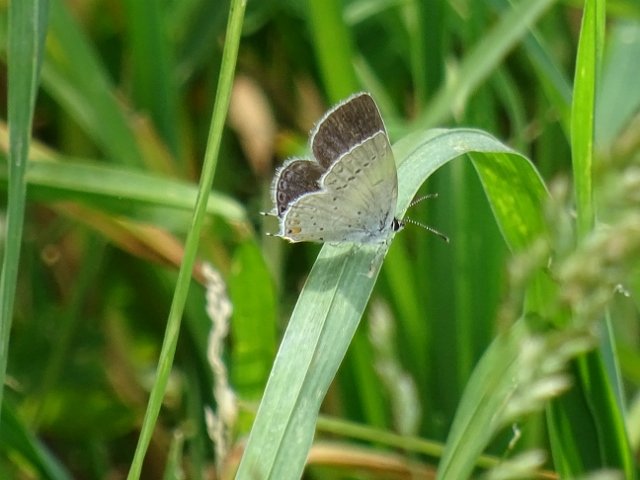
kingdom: Animalia
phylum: Arthropoda
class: Insecta
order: Lepidoptera
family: Lycaenidae
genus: Elkalyce
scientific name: Elkalyce comyntas
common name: Eastern Tailed-Blue
